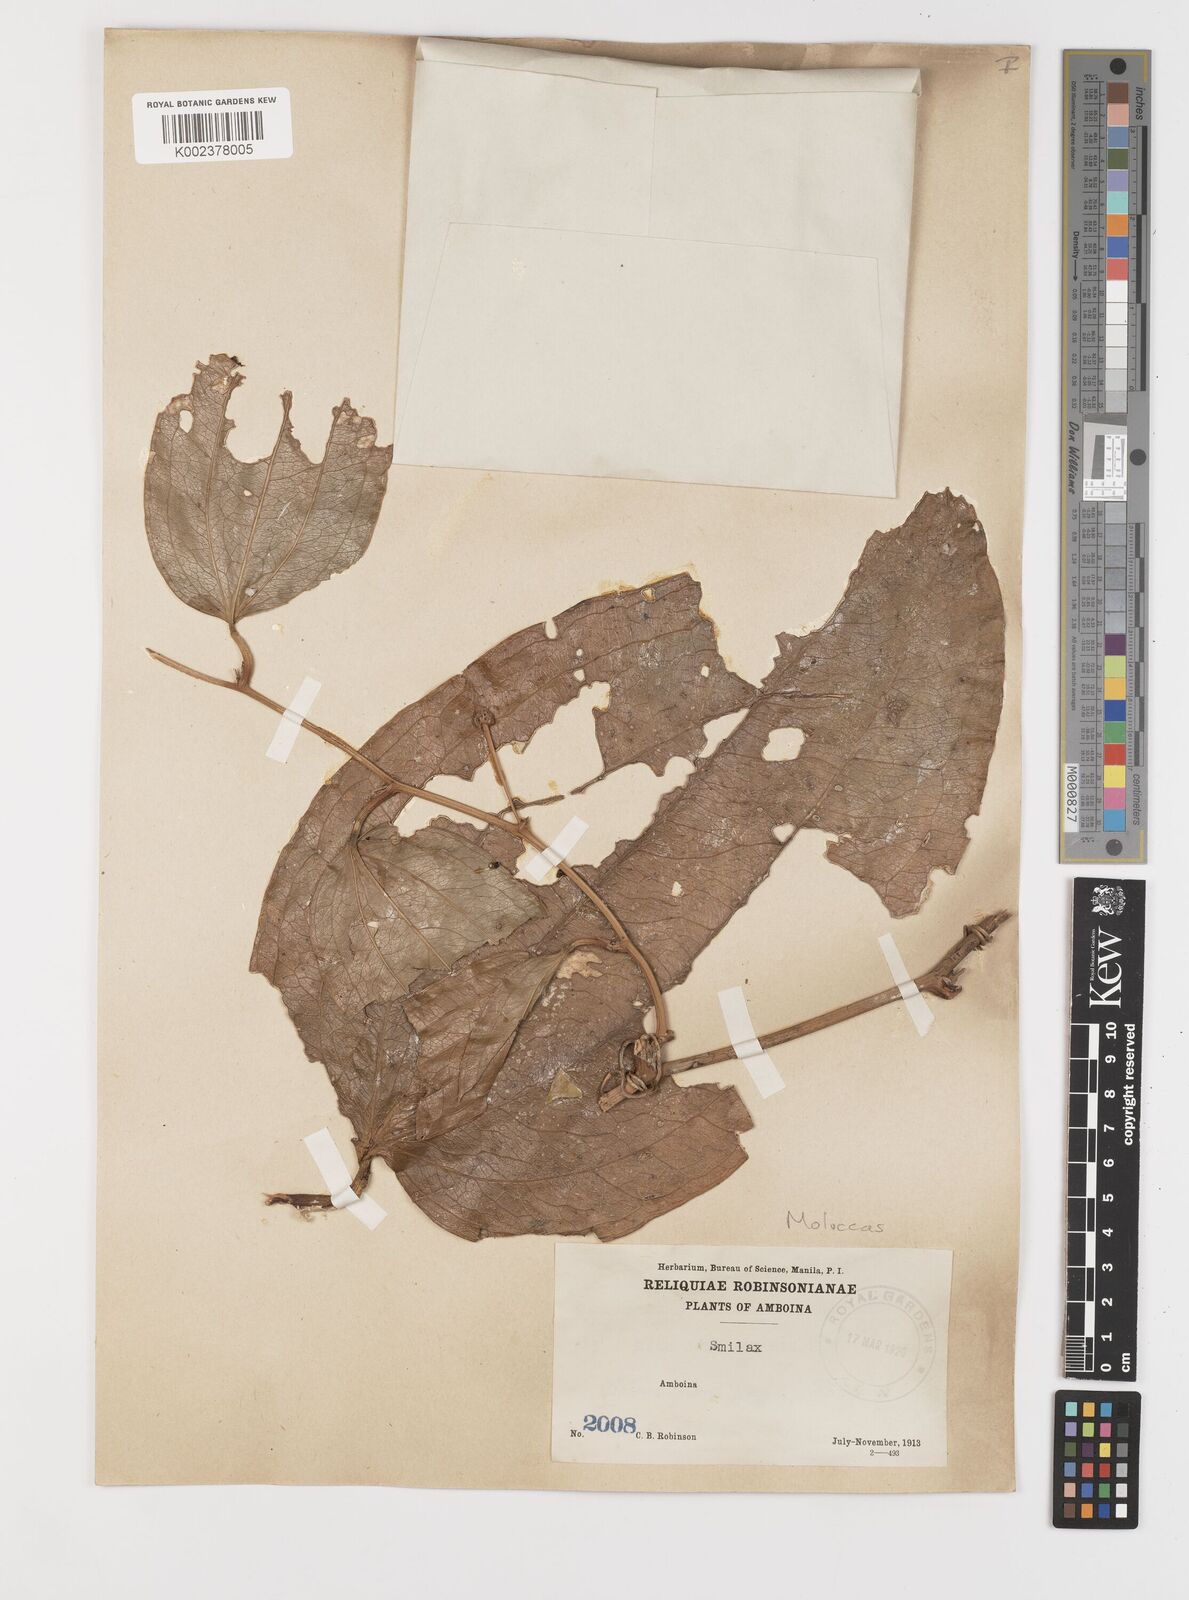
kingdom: Plantae
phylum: Tracheophyta
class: Liliopsida
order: Liliales
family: Smilacaceae
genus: Smilax
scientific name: Smilax
